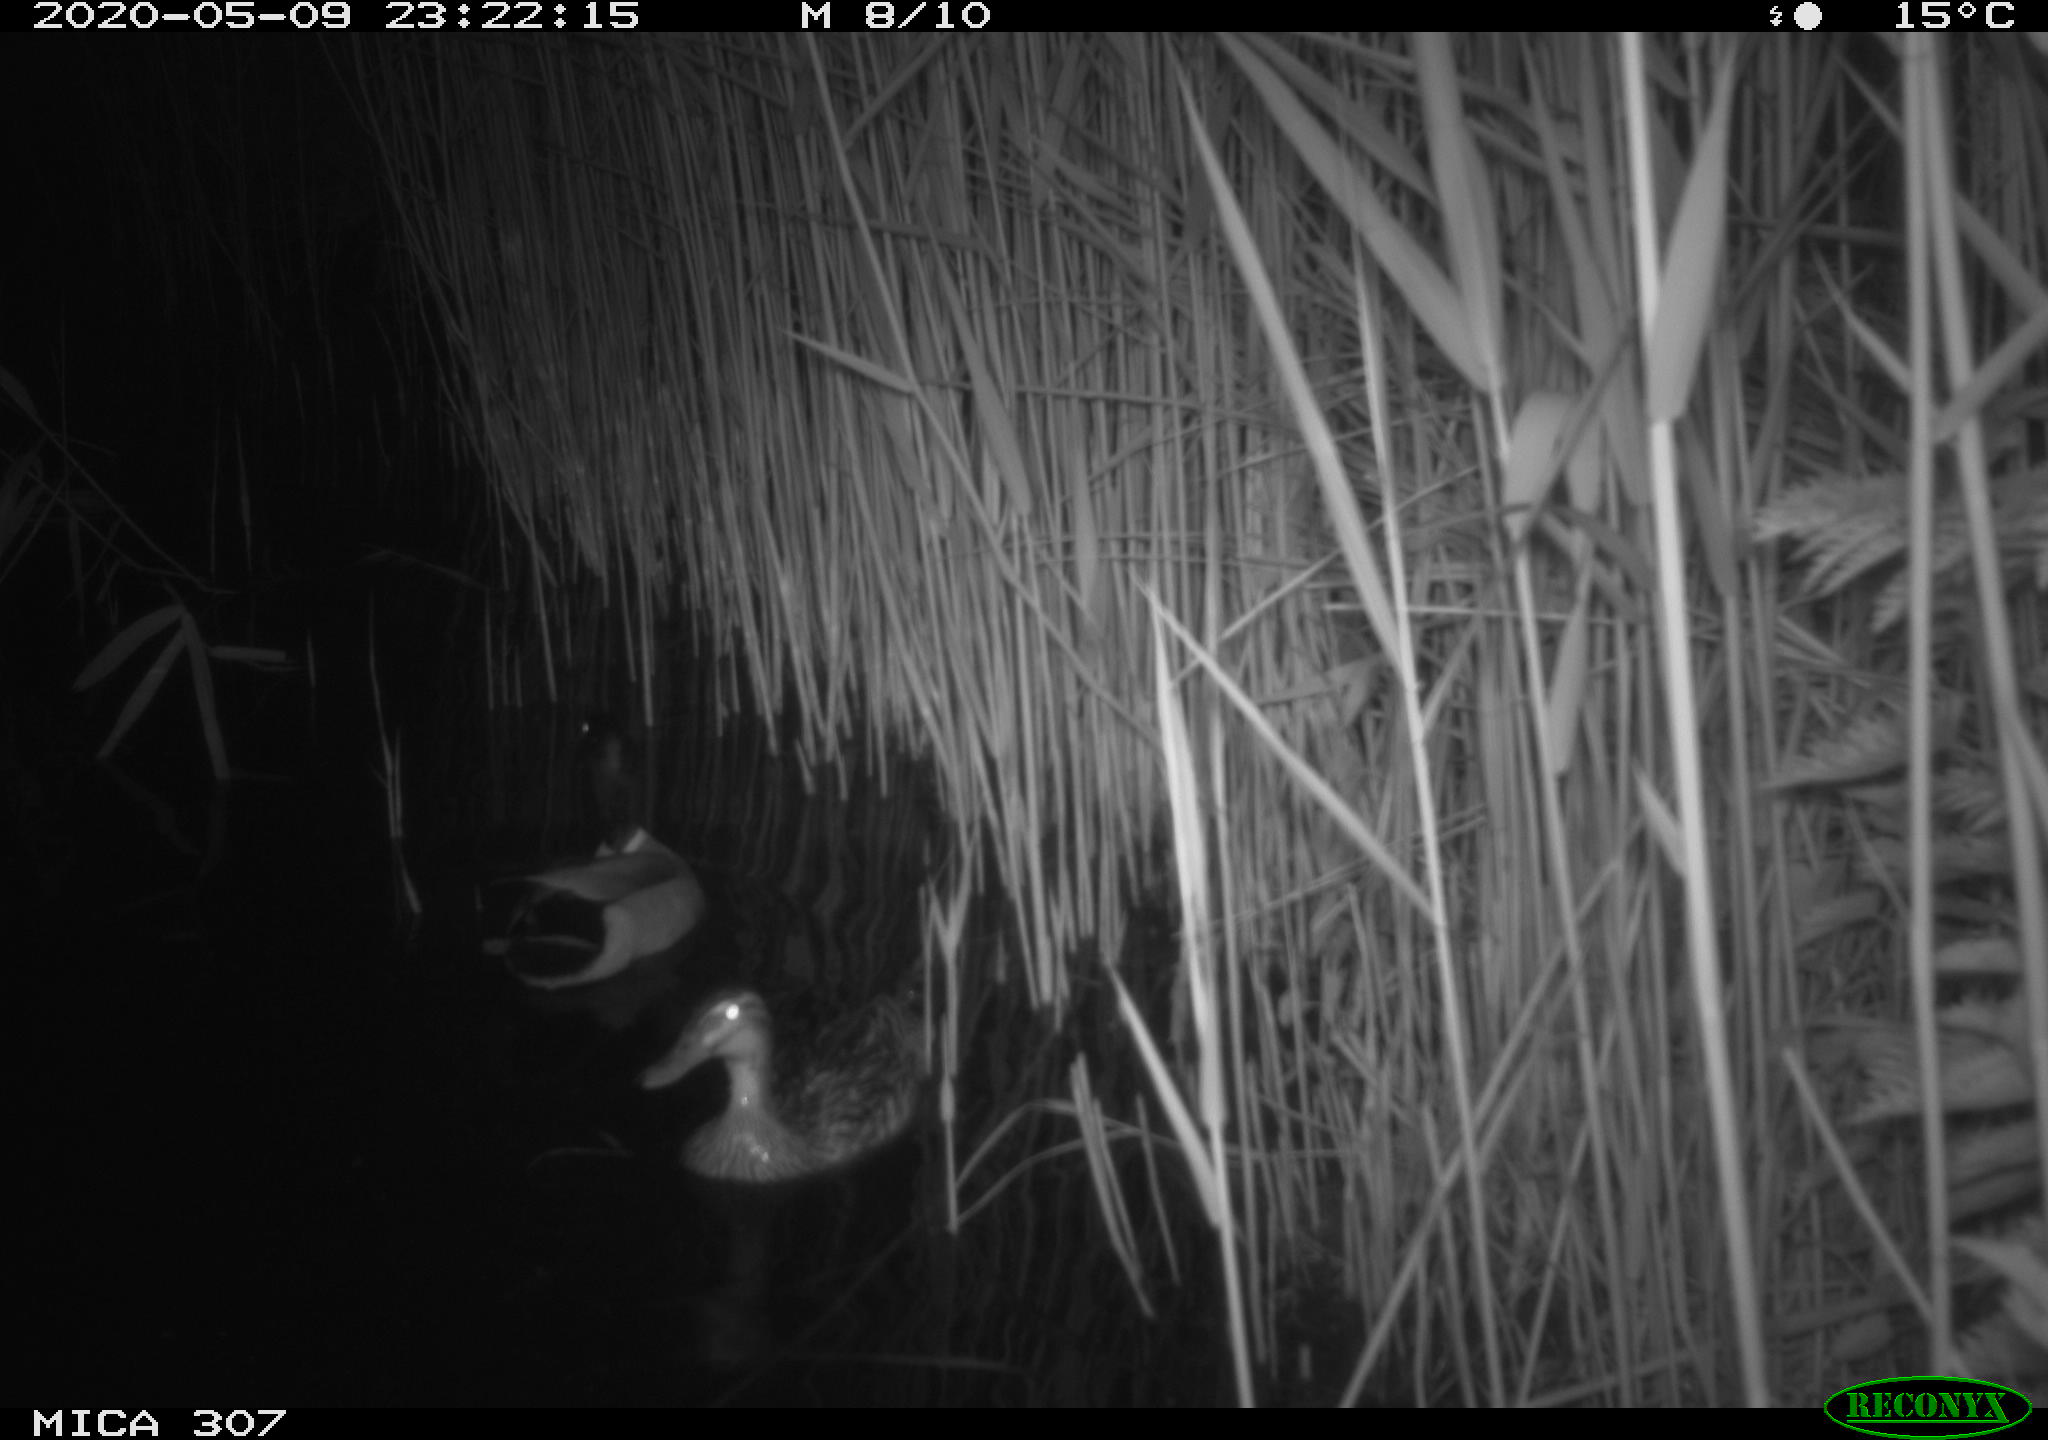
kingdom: Animalia
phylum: Chordata
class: Aves
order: Anseriformes
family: Anatidae
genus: Anas
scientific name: Anas platyrhynchos
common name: Mallard
